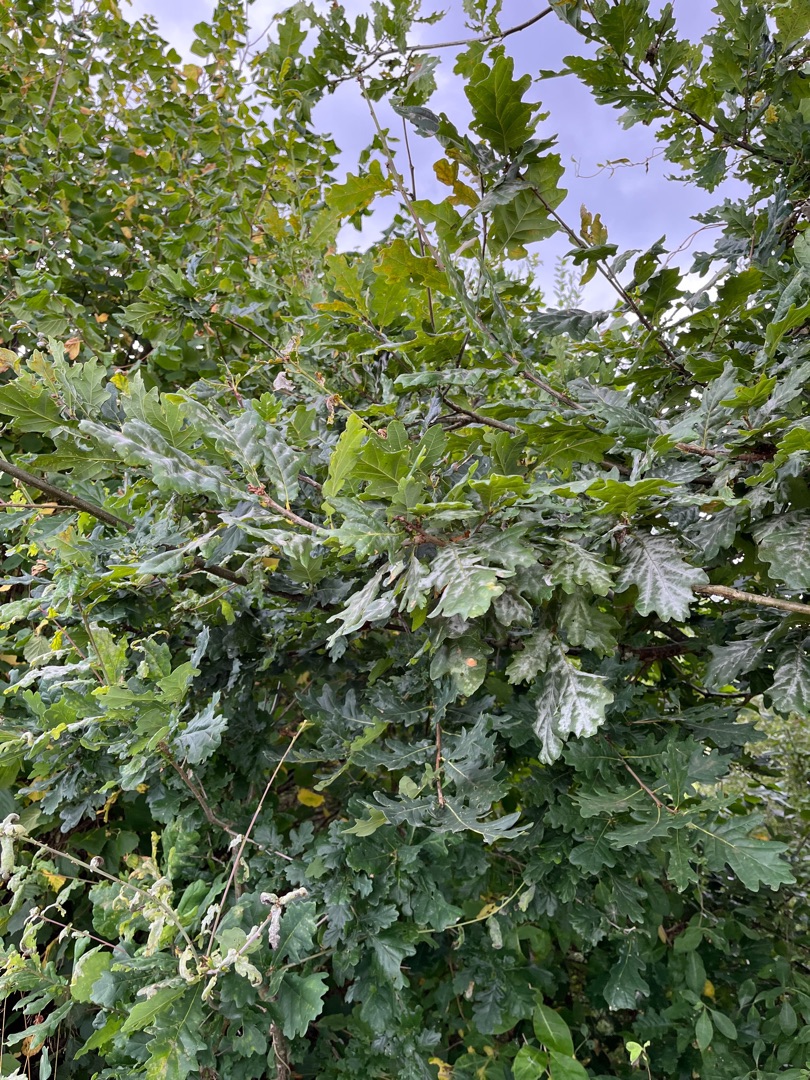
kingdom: Plantae
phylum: Tracheophyta
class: Magnoliopsida
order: Fagales
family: Fagaceae
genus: Quercus
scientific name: Quercus robur
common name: Stilk-eg/almindelig eg
